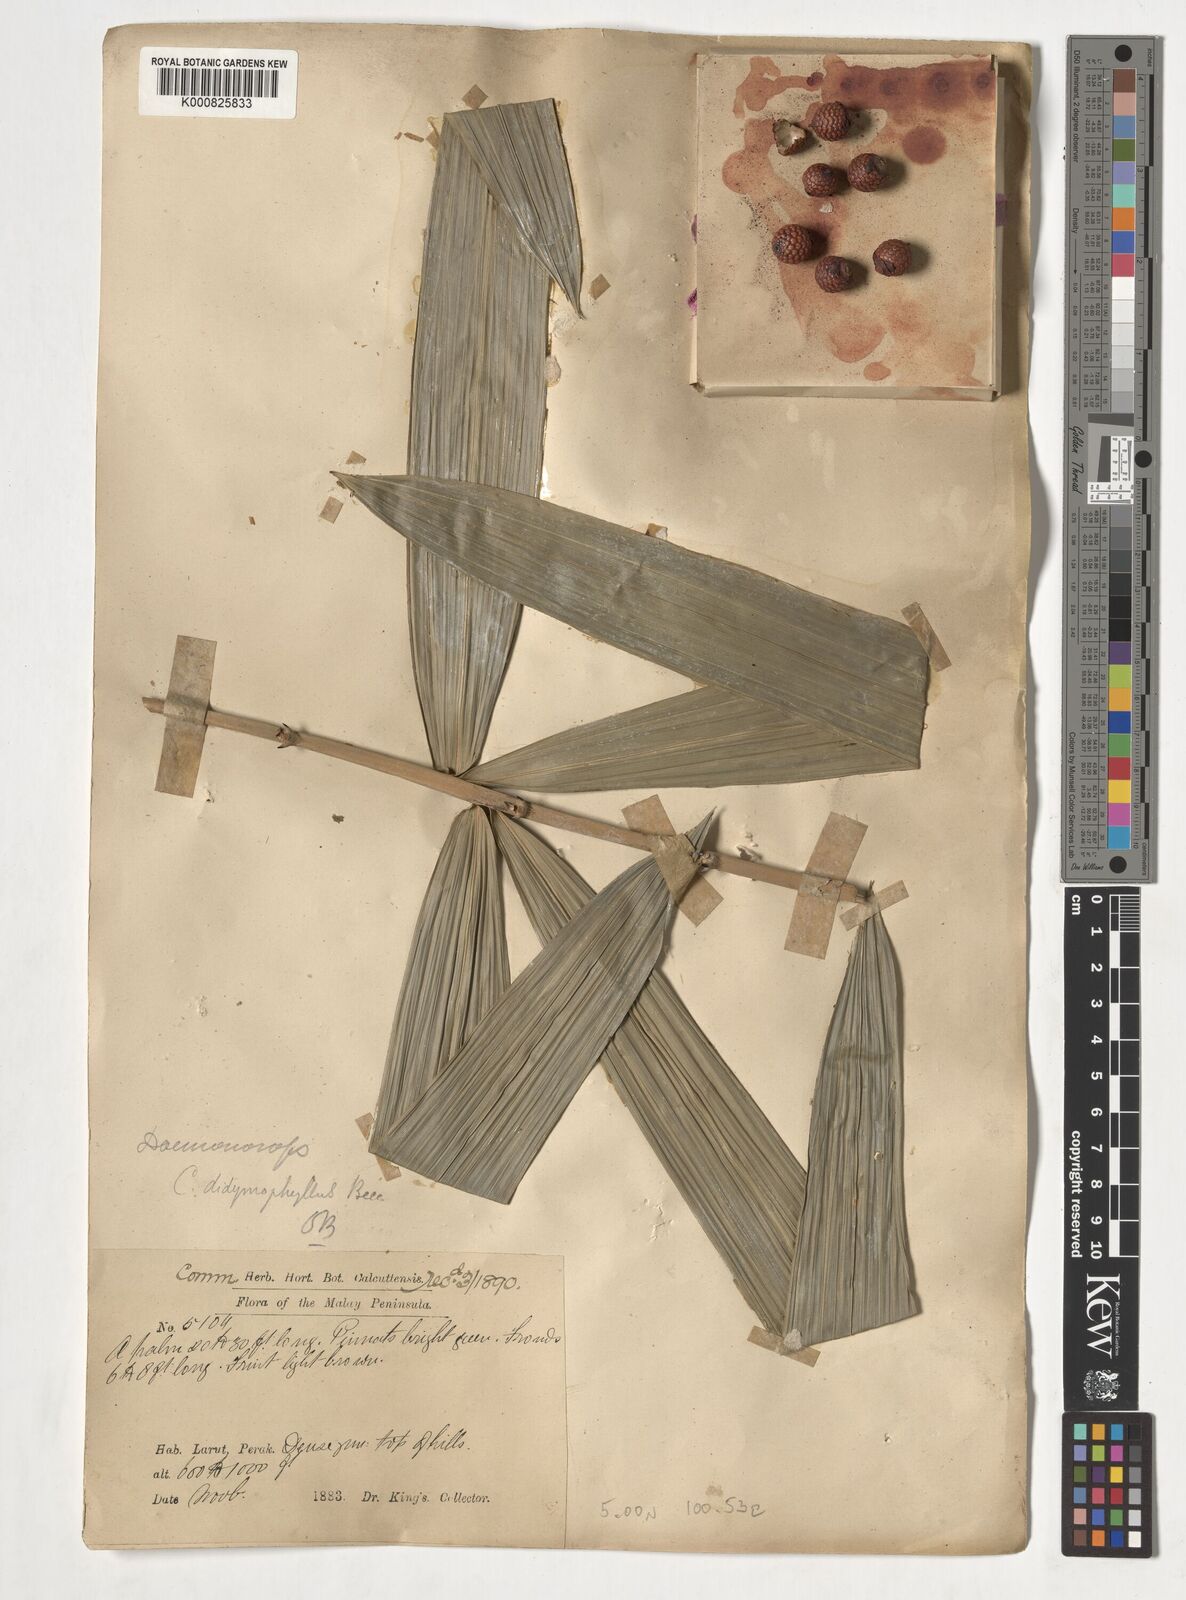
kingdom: Plantae
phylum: Tracheophyta
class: Liliopsida
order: Arecales
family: Arecaceae
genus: Calamus
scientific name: Calamus gracilipes
